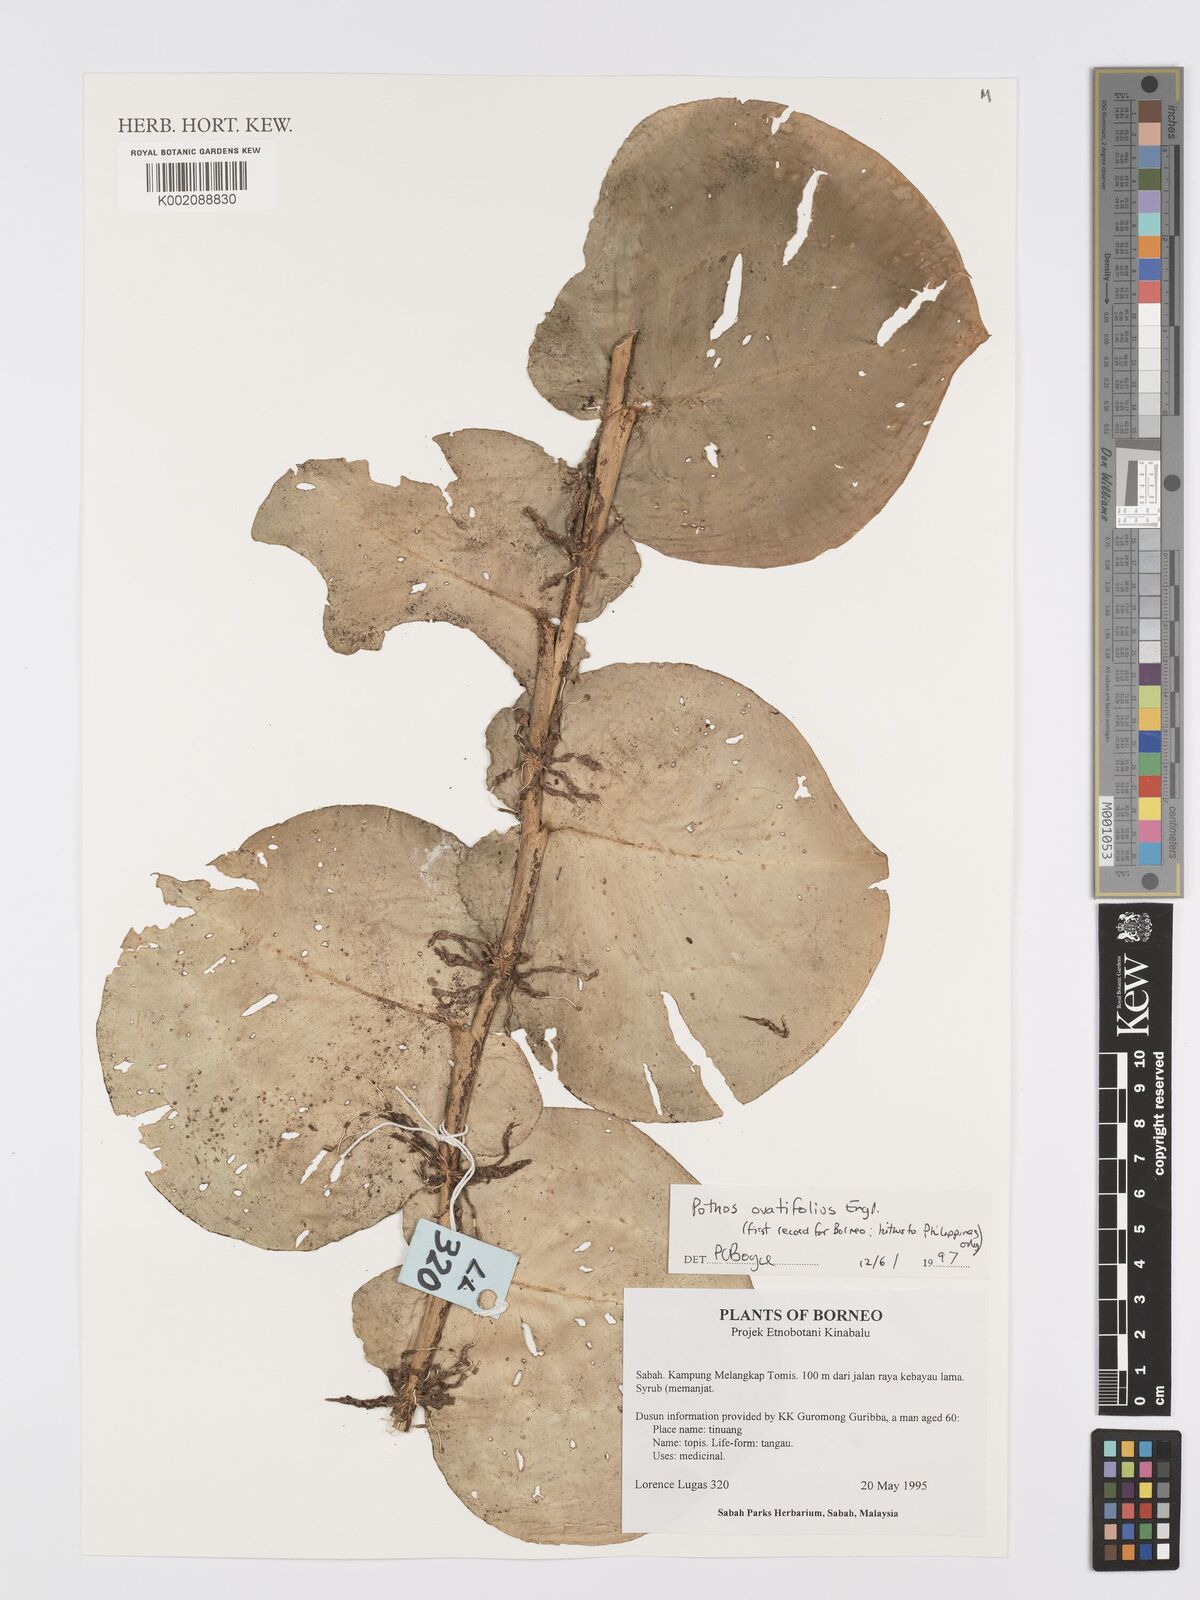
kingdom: Plantae
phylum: Tracheophyta
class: Liliopsida
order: Alismatales
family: Araceae
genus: Pothos
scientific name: Pothos ovatifolius
